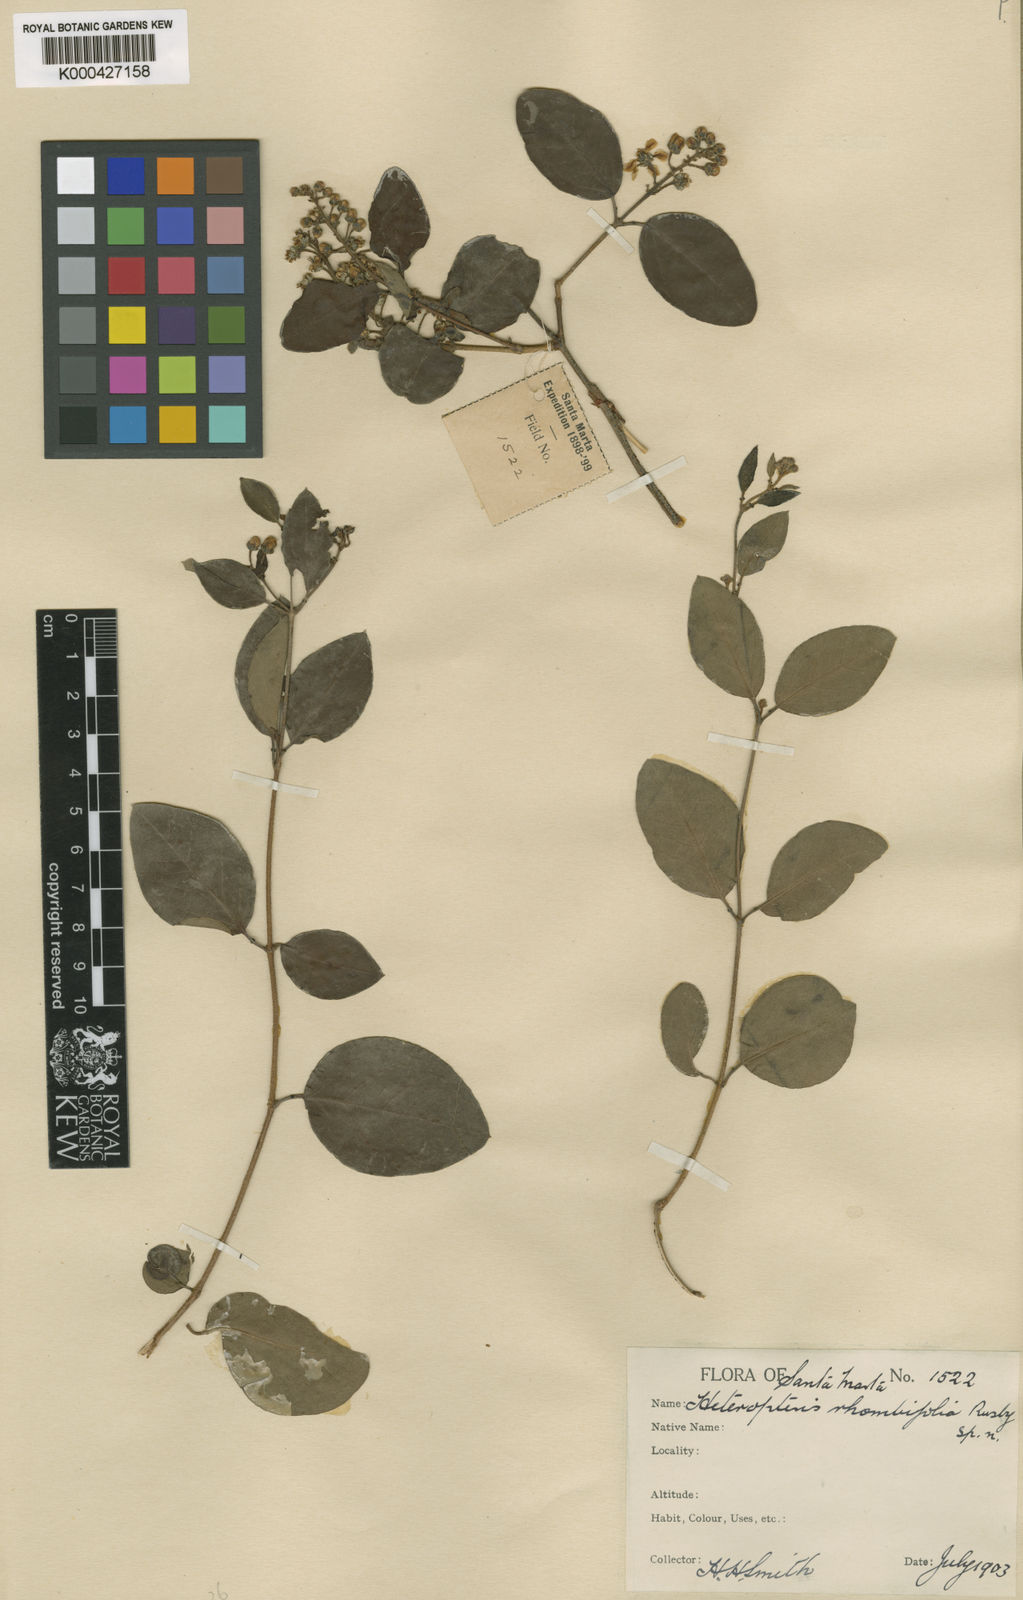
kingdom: Plantae
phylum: Tracheophyta
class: Magnoliopsida
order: Malpighiales
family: Malpighiaceae
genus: Heteropterys
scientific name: Heteropterys prunifolia
